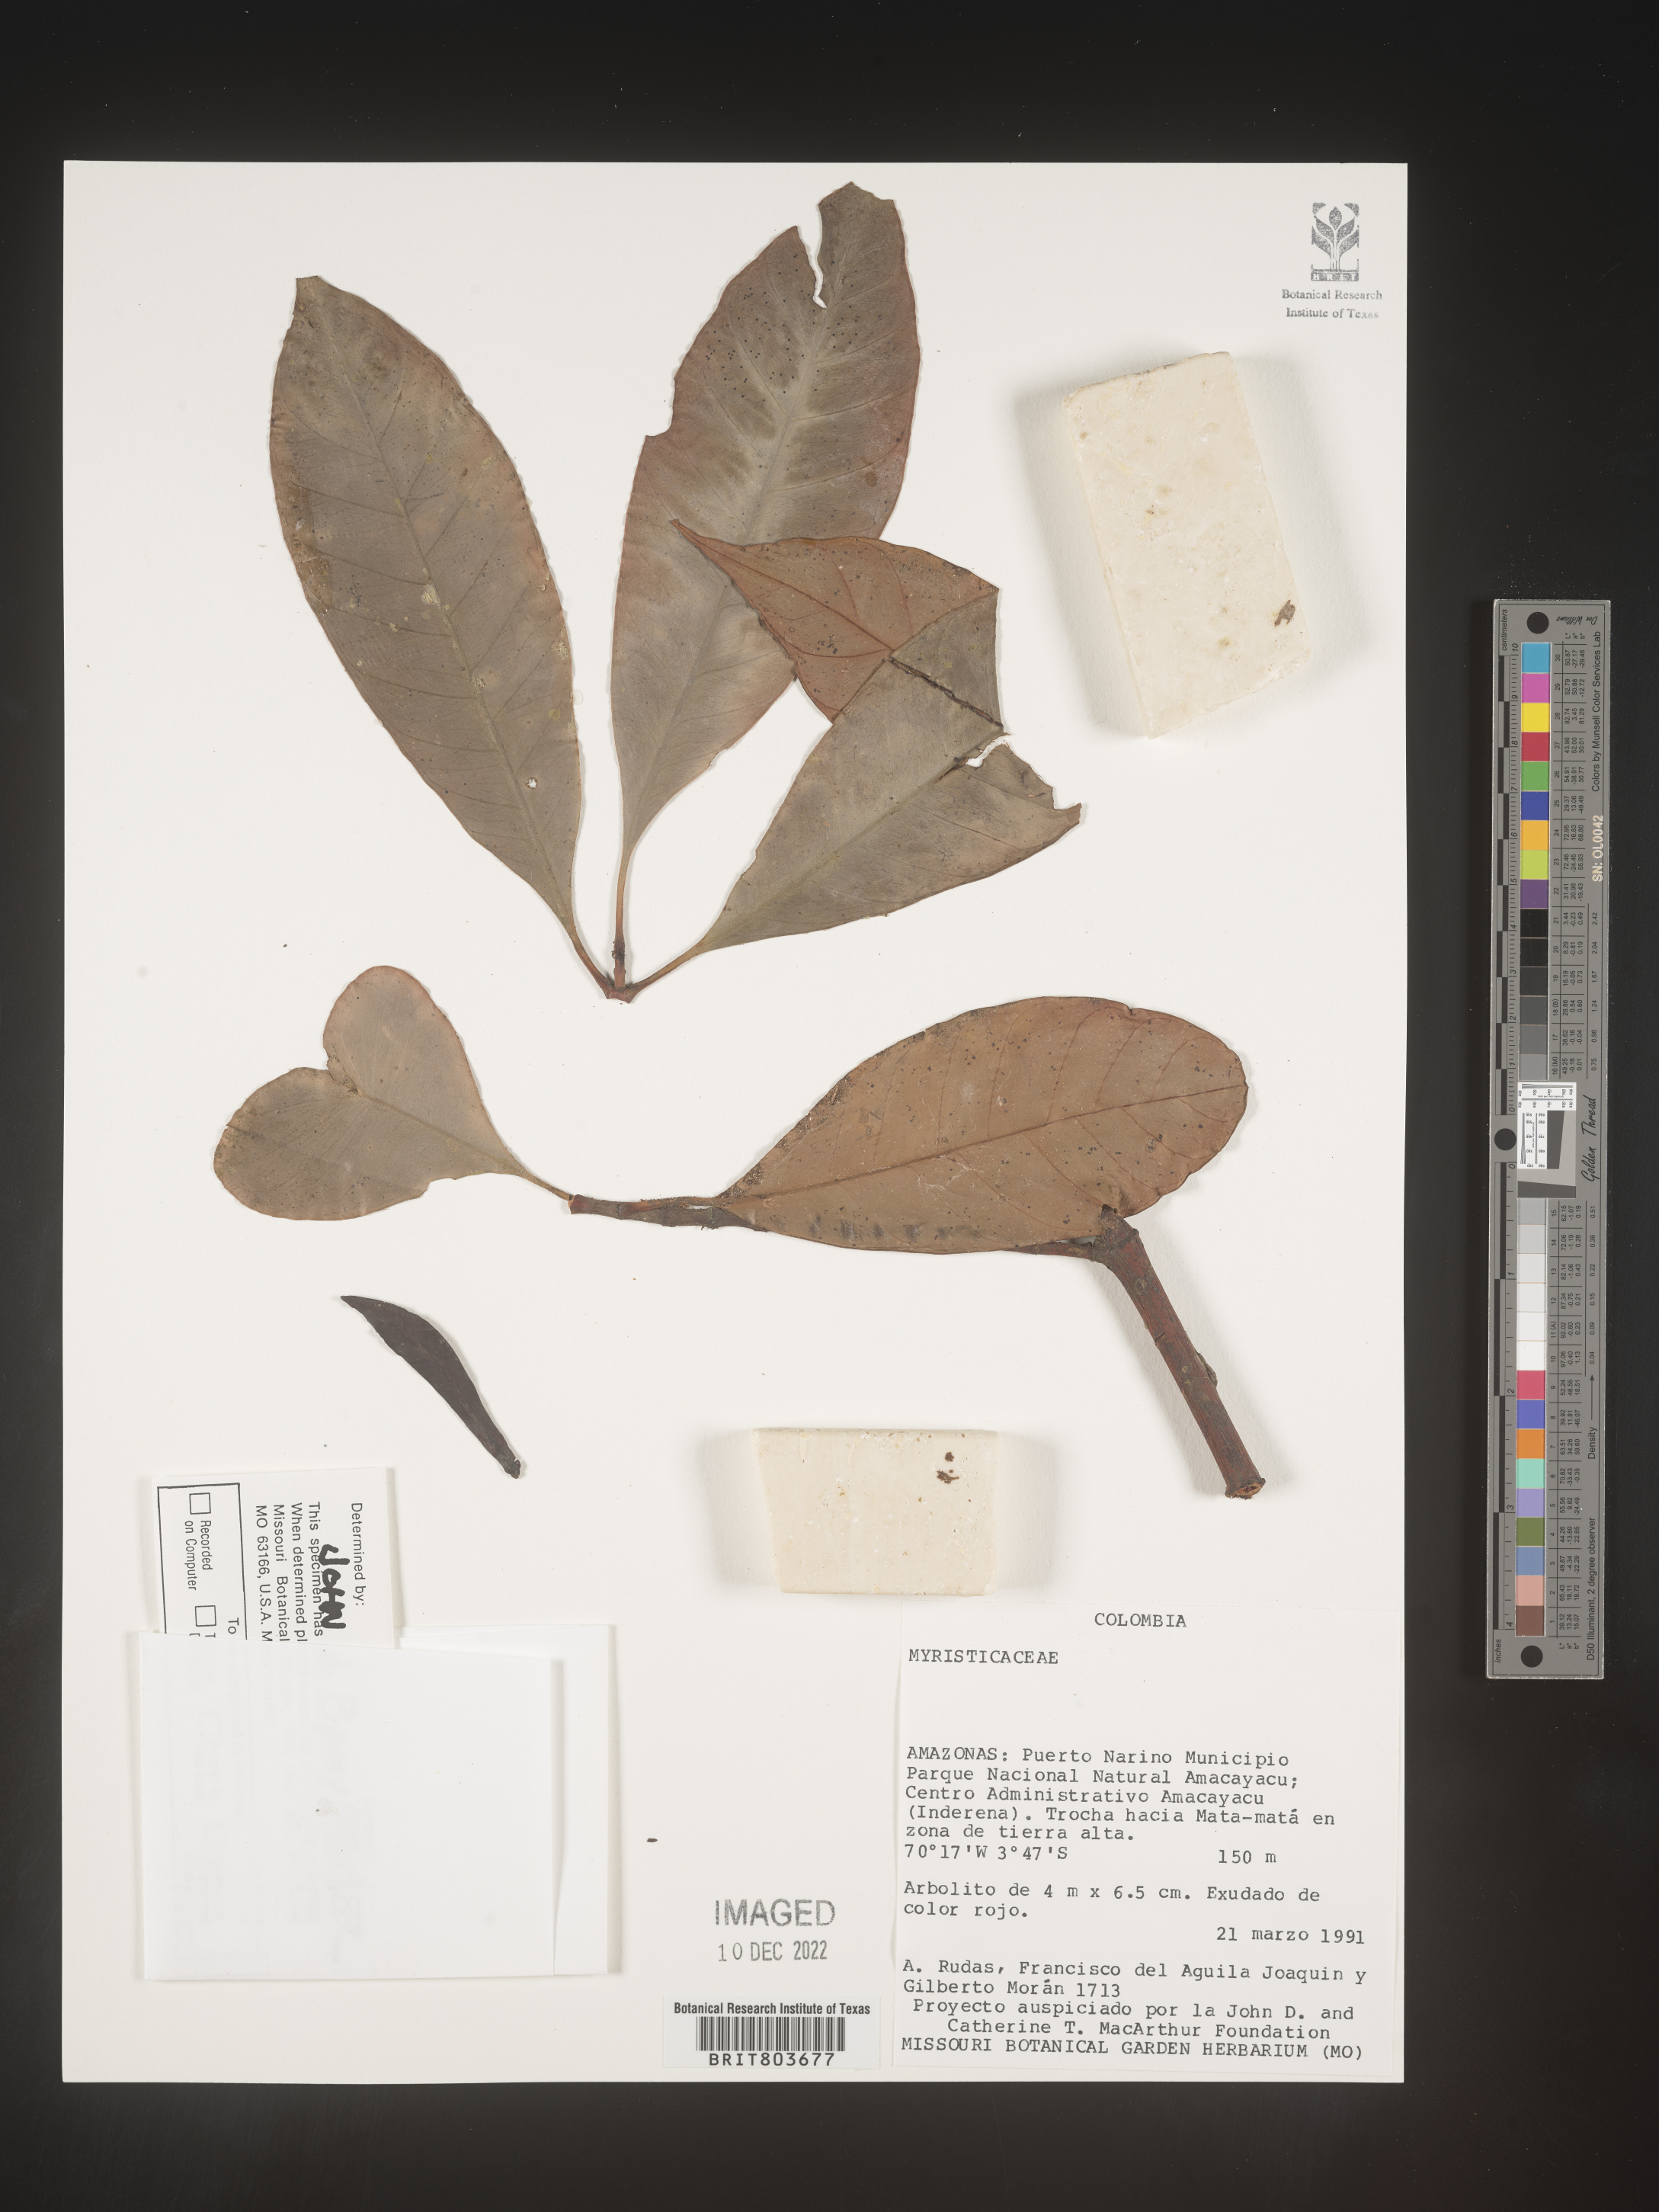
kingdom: Plantae
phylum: Tracheophyta
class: Magnoliopsida
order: Malpighiales
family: Clusiaceae
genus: Tovomita
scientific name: Tovomita
